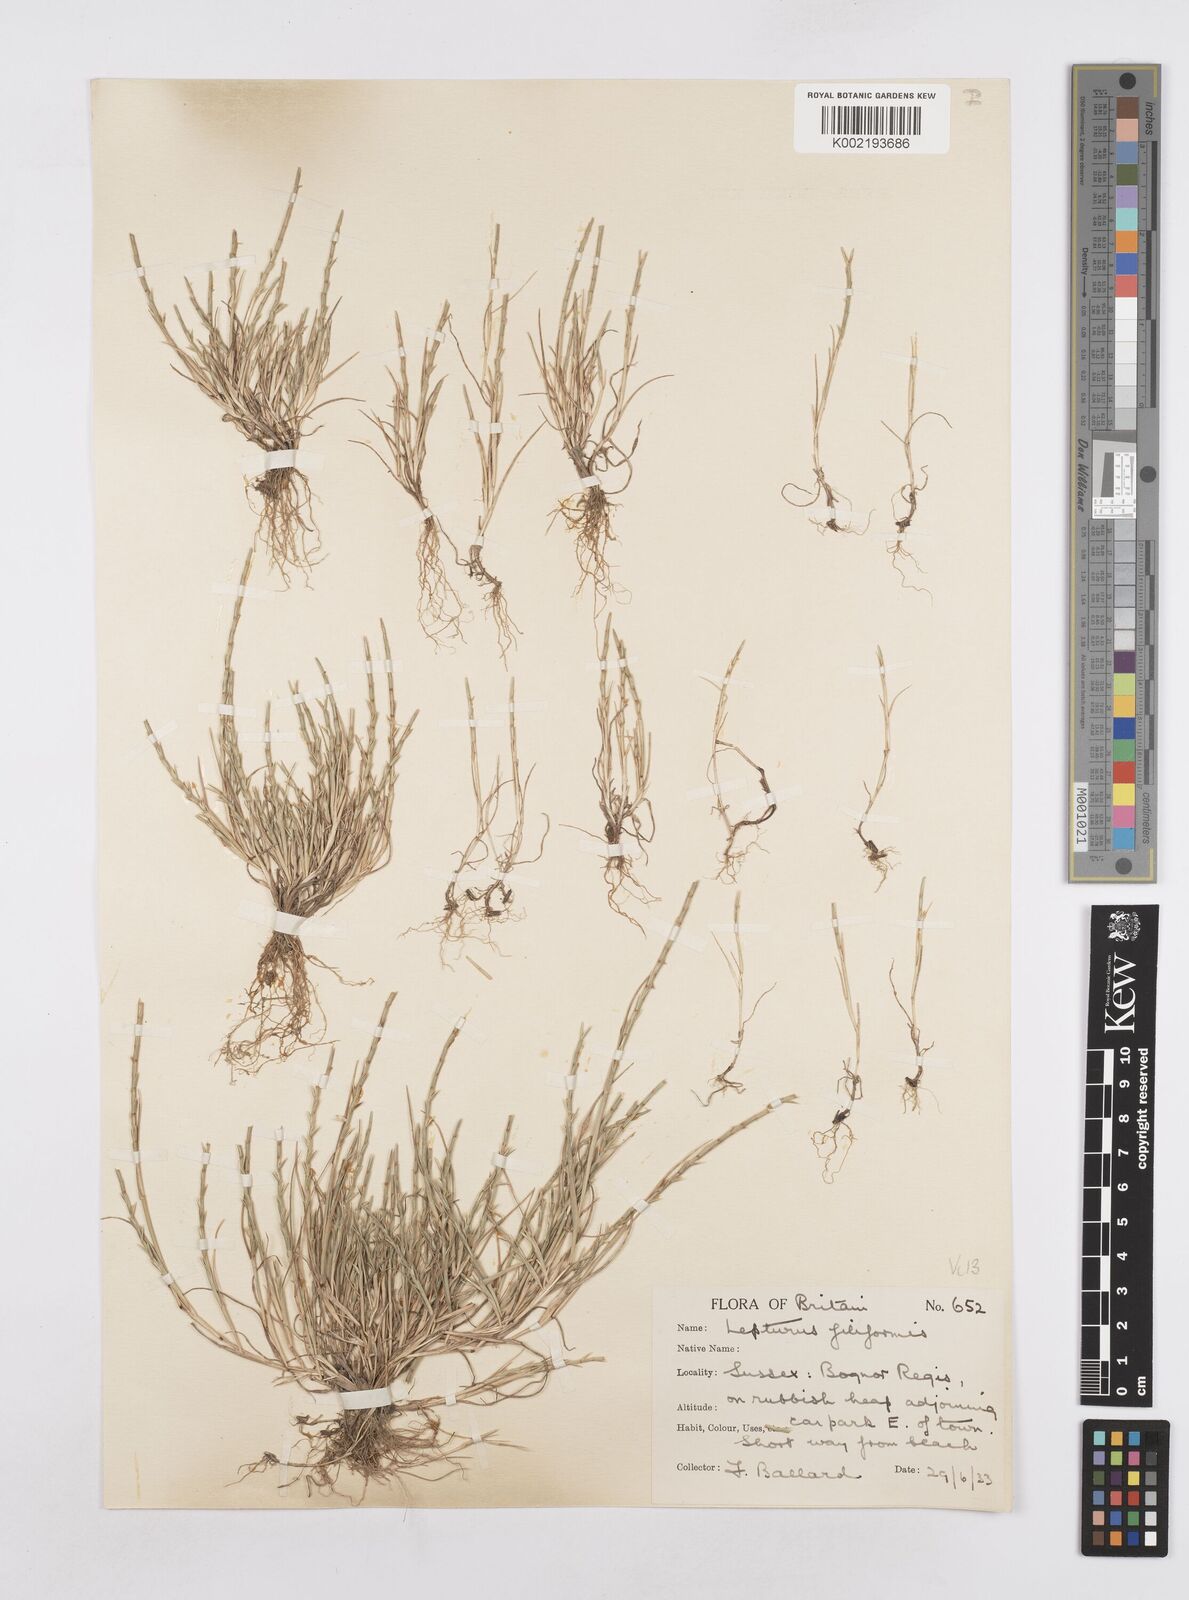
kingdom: Plantae
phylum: Tracheophyta
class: Liliopsida
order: Poales
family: Poaceae
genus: Parapholis
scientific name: Parapholis strigosa
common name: Hard-grass
